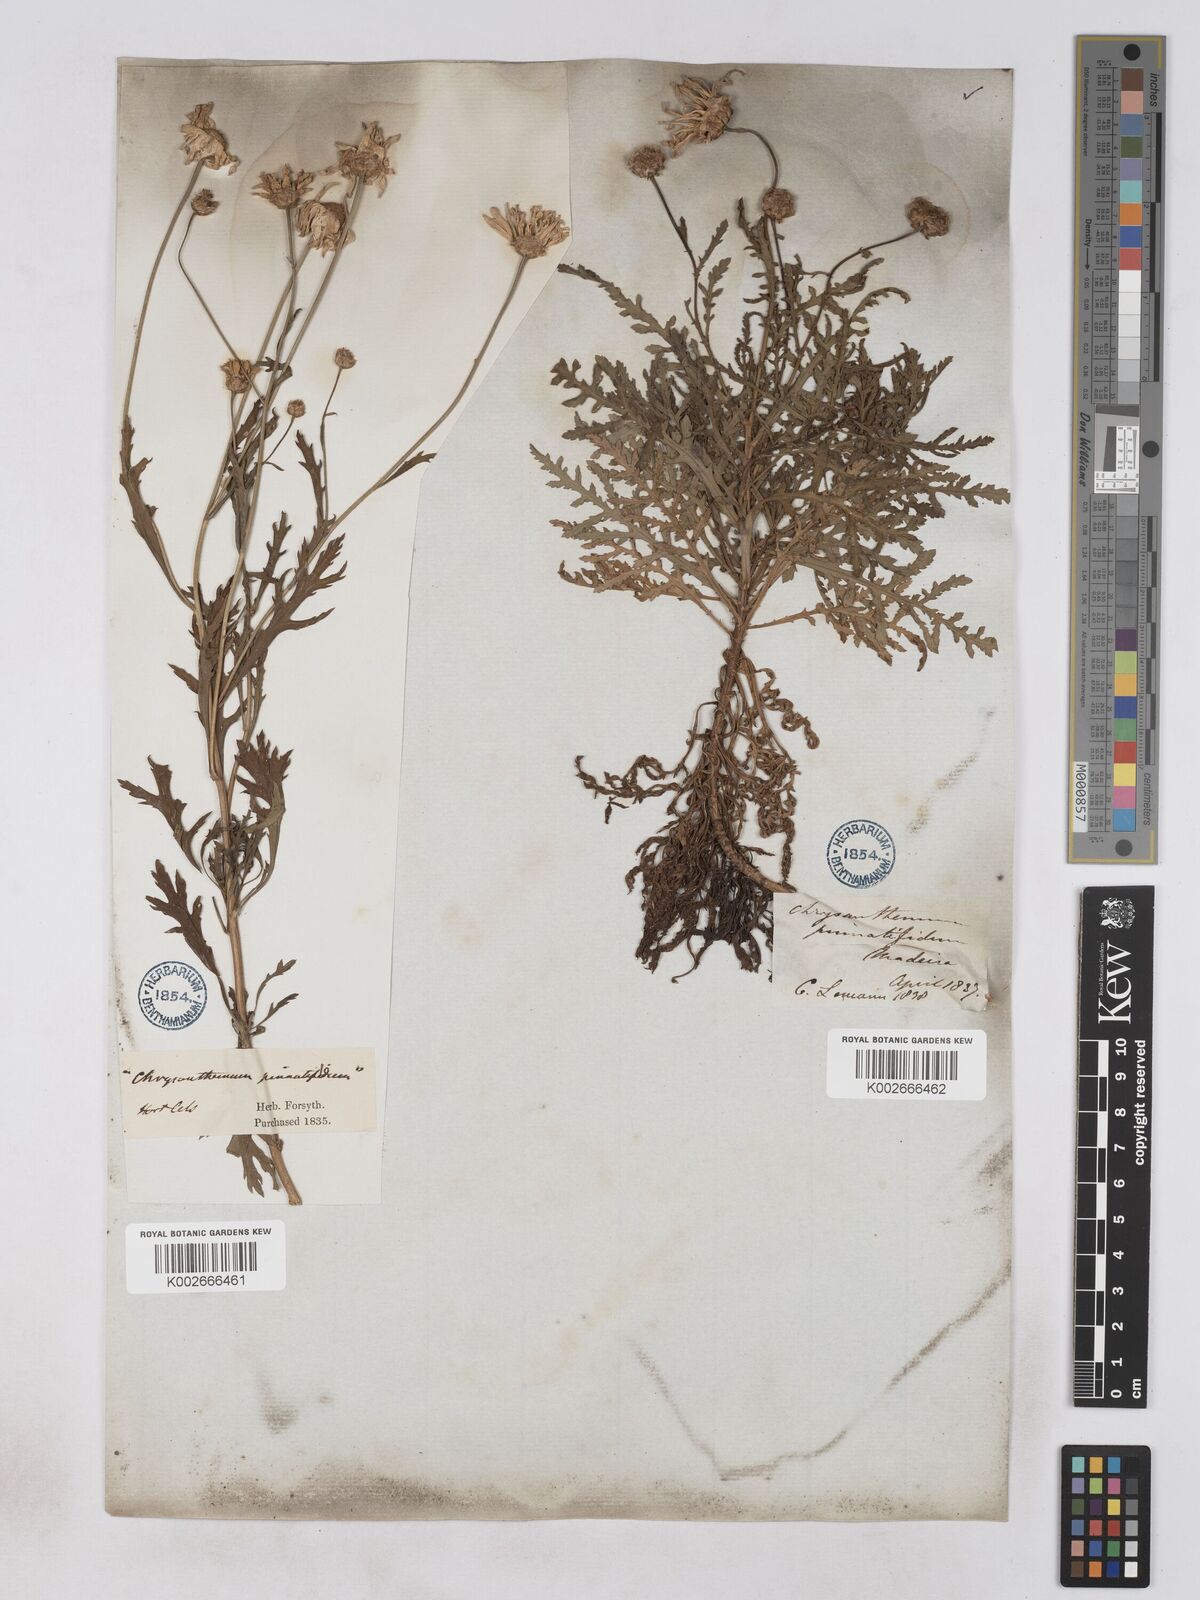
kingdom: Plantae
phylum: Tracheophyta
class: Magnoliopsida
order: Asterales
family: Asteraceae
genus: Argyranthemum
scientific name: Argyranthemum dissectum
